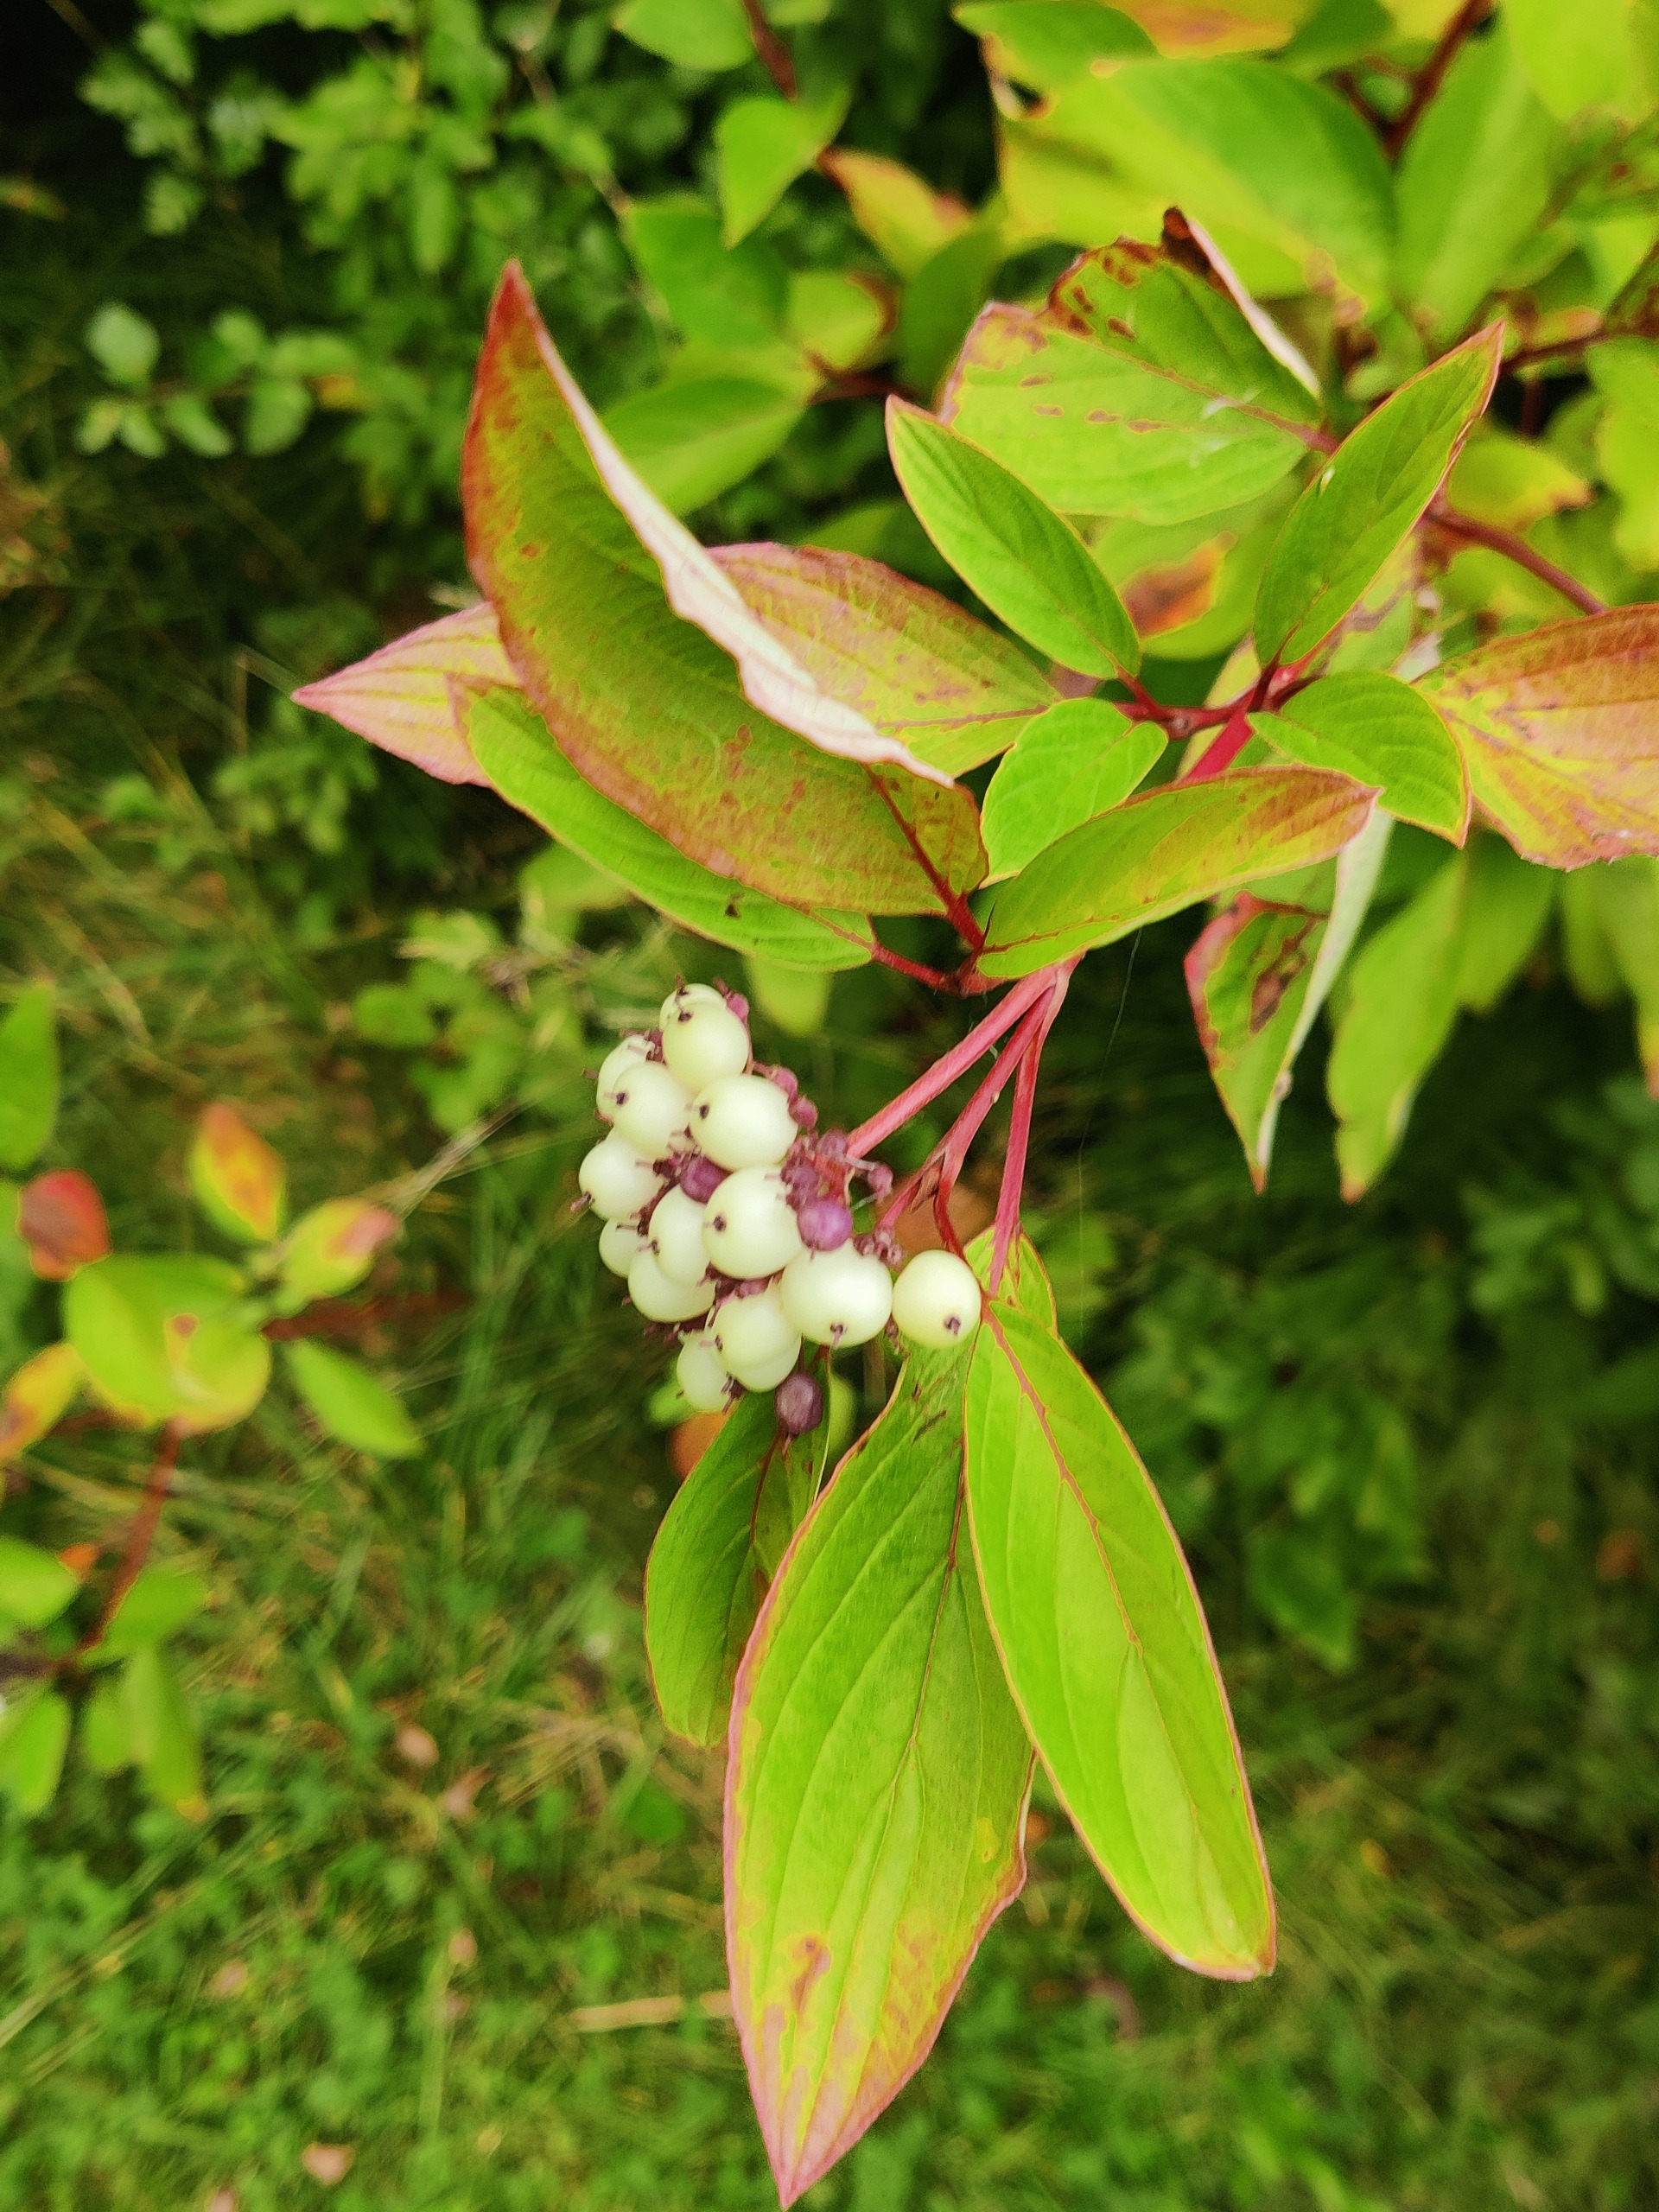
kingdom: Plantae
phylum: Tracheophyta
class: Magnoliopsida
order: Cornales
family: Cornaceae
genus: Cornus
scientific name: Cornus sericea
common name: Krybende kornel
